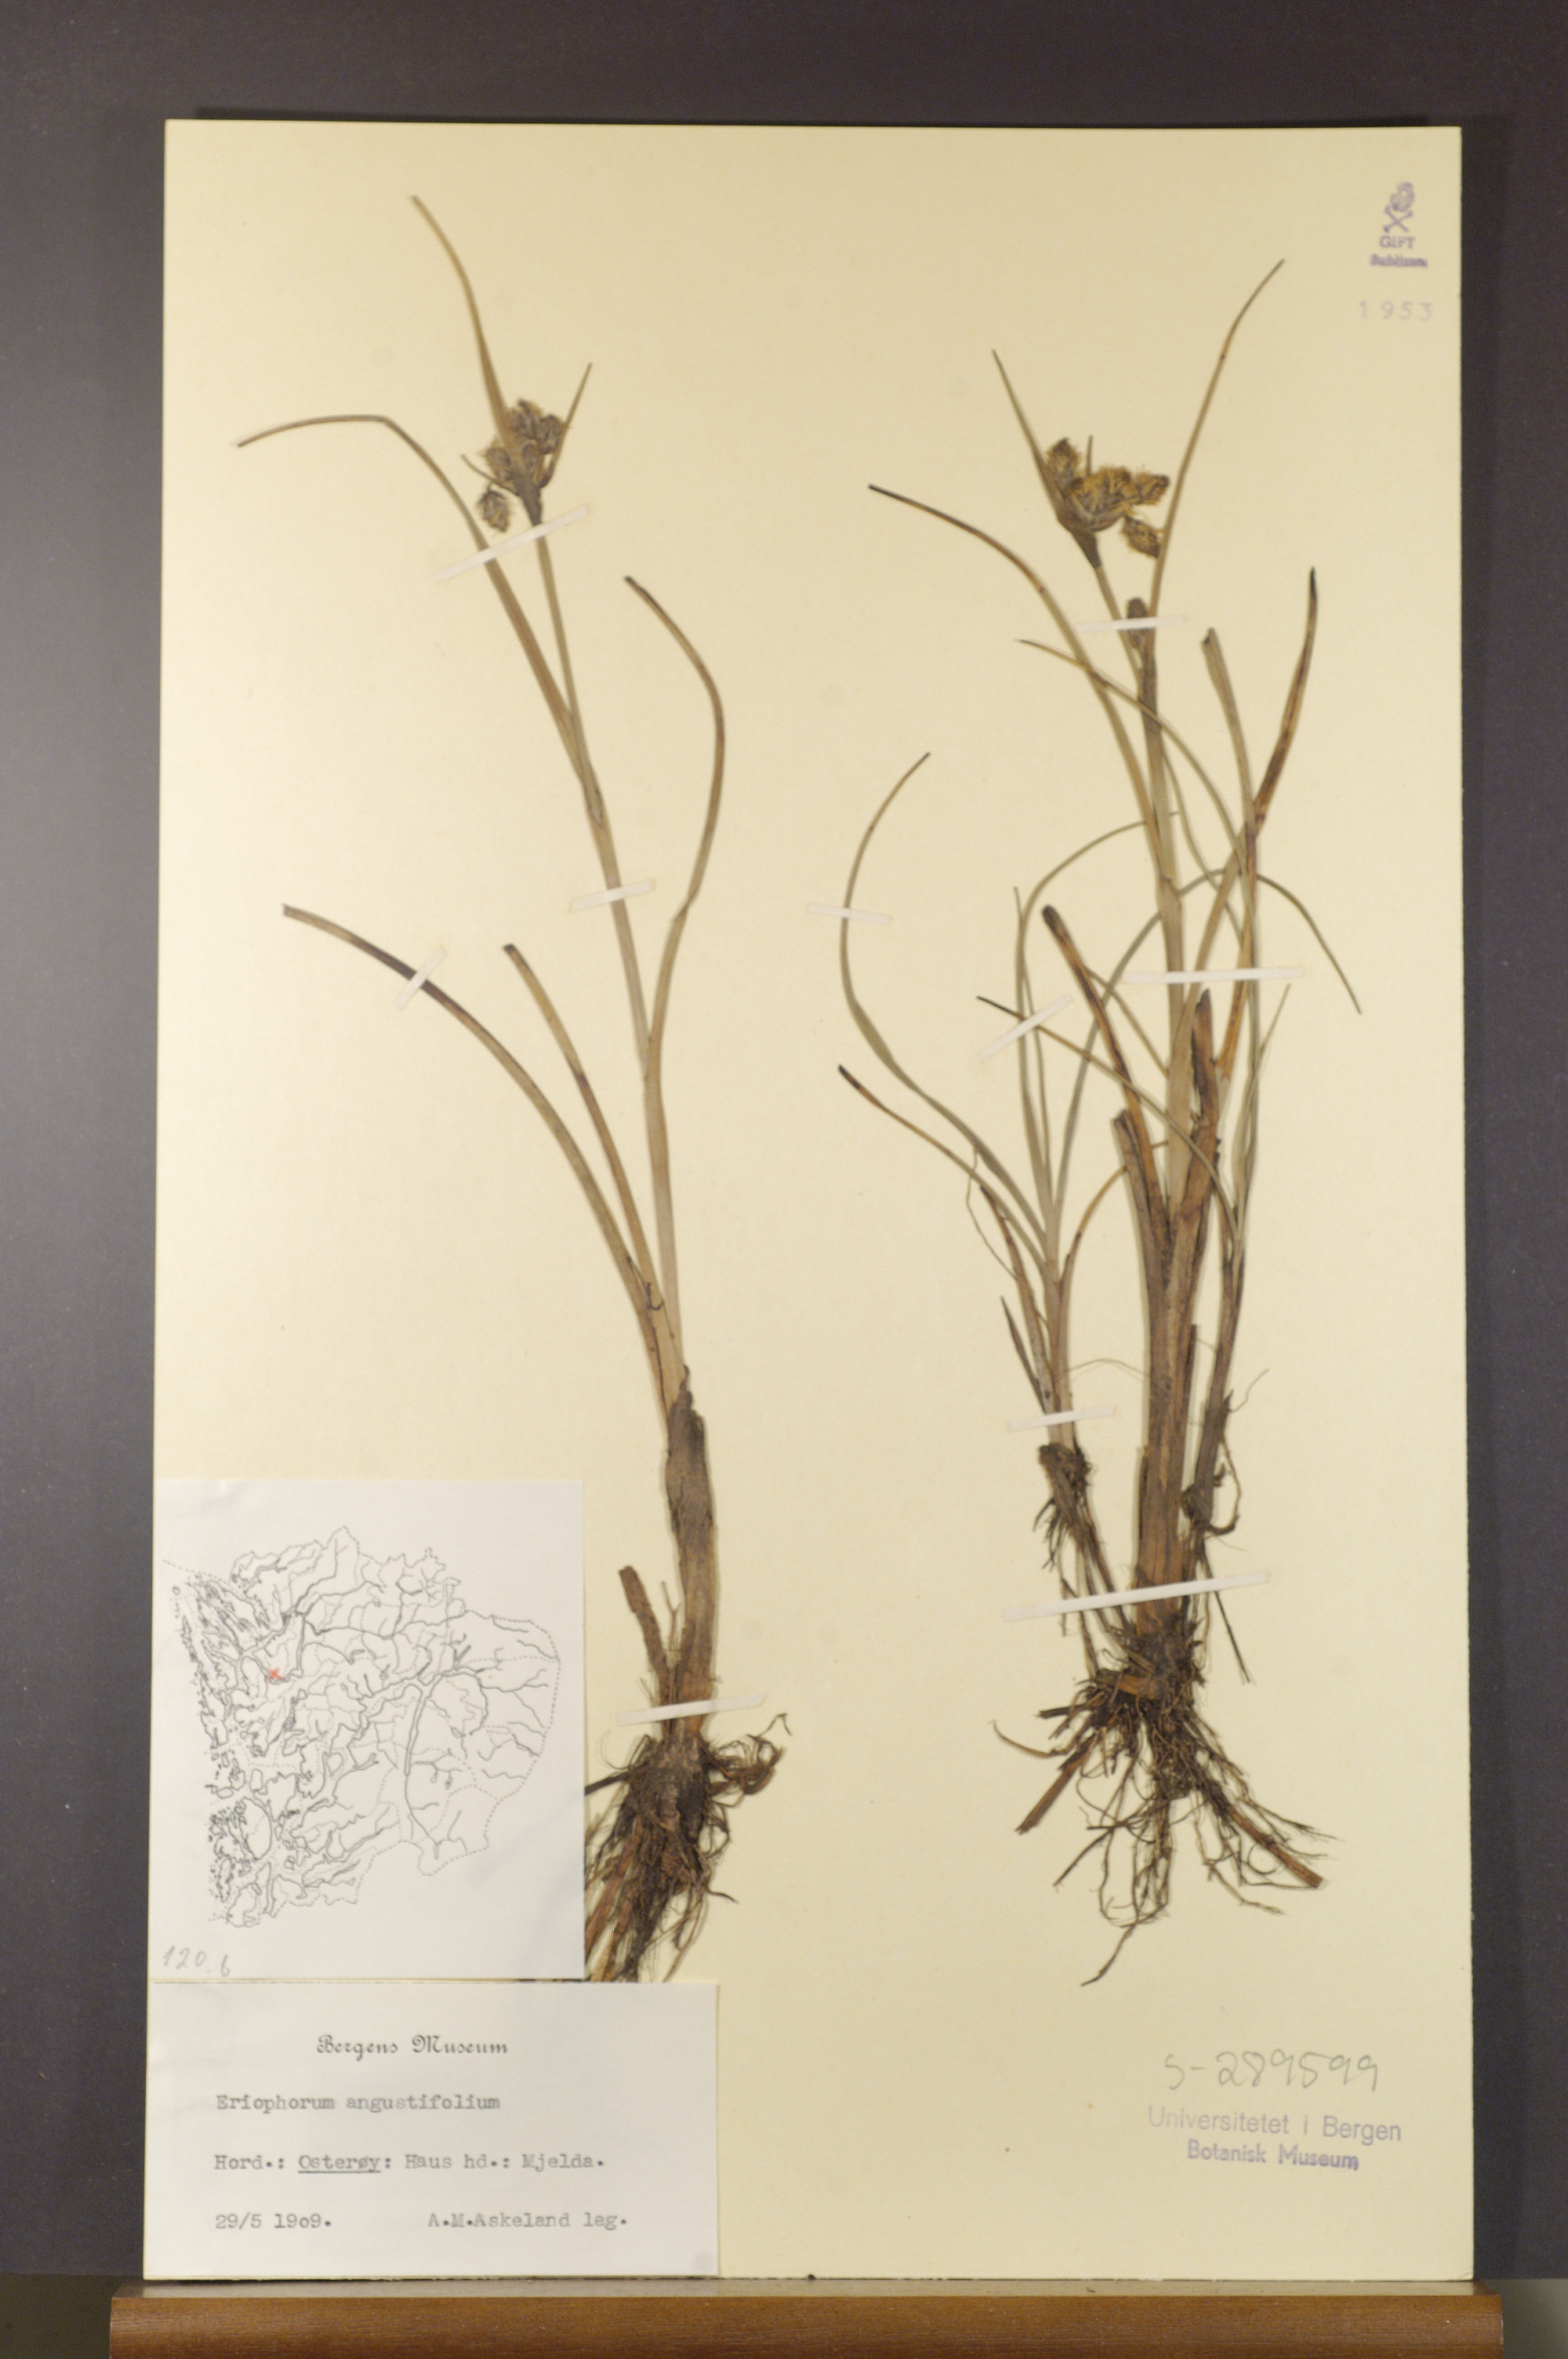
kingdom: Plantae
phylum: Tracheophyta
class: Liliopsida
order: Poales
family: Cyperaceae
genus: Eriophorum
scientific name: Eriophorum angustifolium
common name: Common cottongrass
